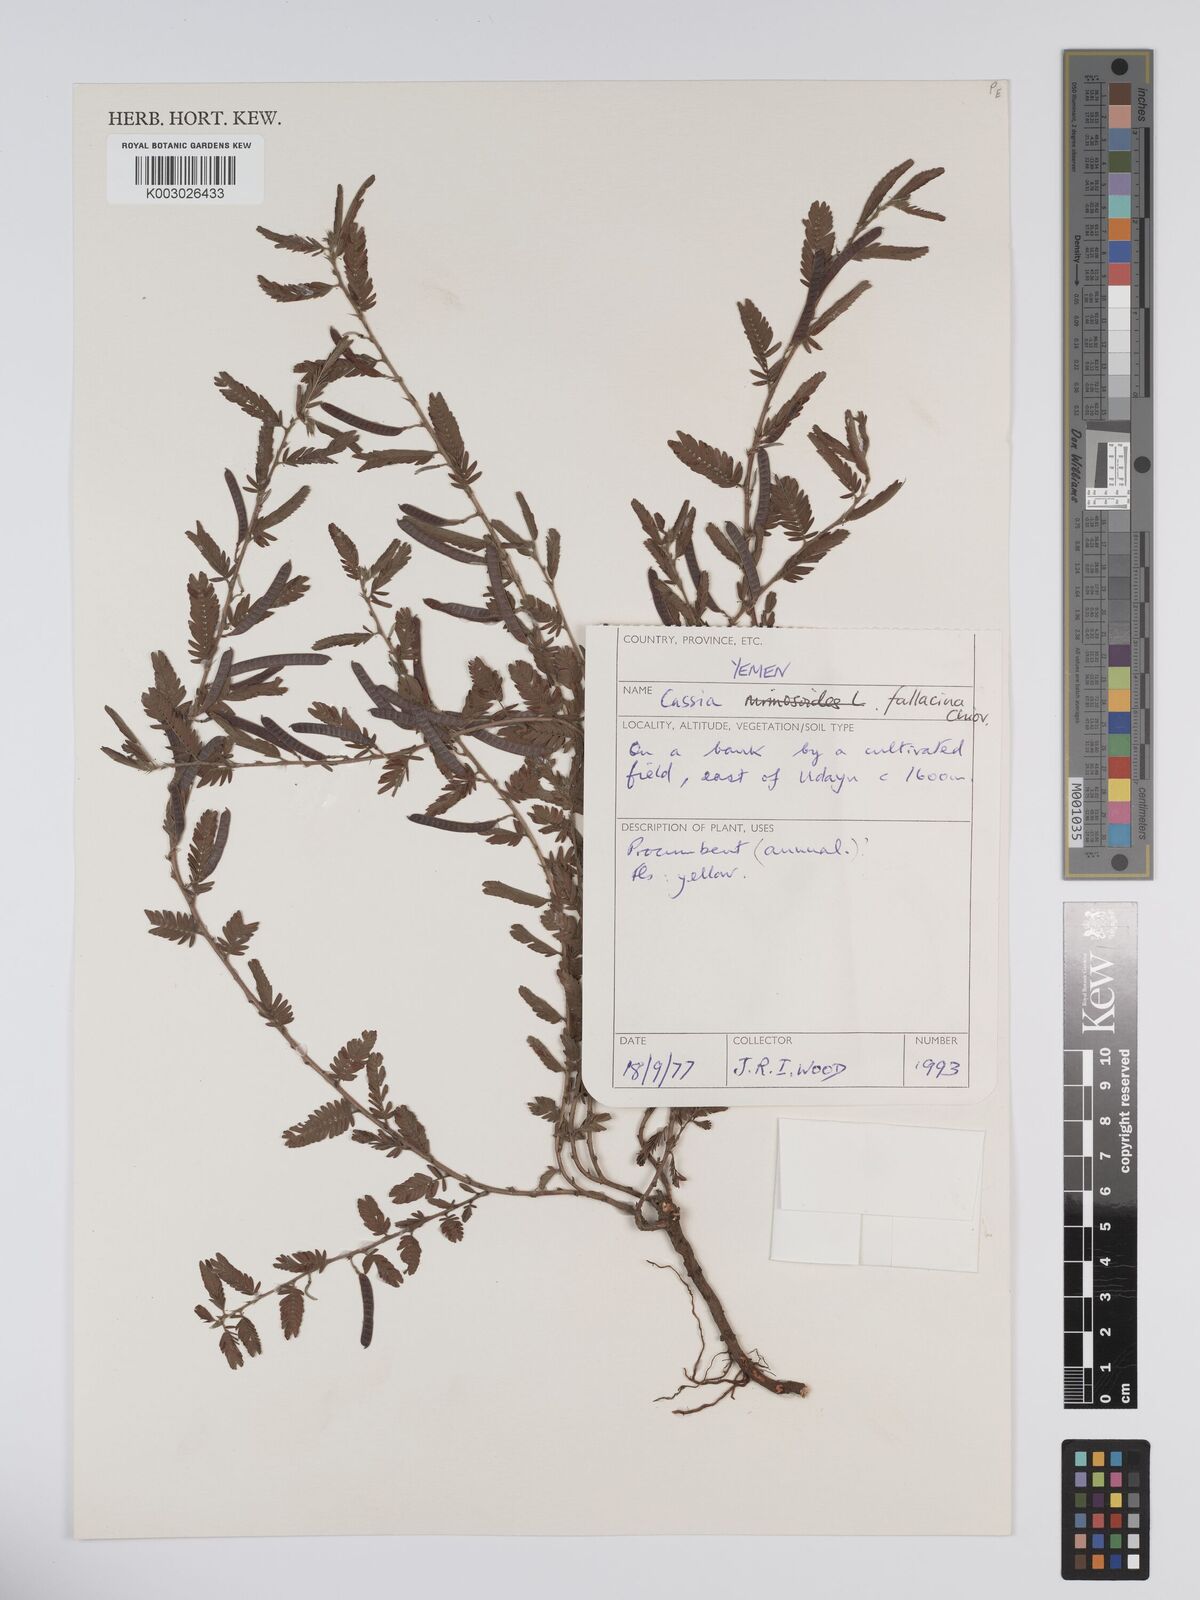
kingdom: Plantae
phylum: Tracheophyta
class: Magnoliopsida
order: Fabales
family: Fabaceae
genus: Chamaecrista
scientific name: Chamaecrista fallacina
